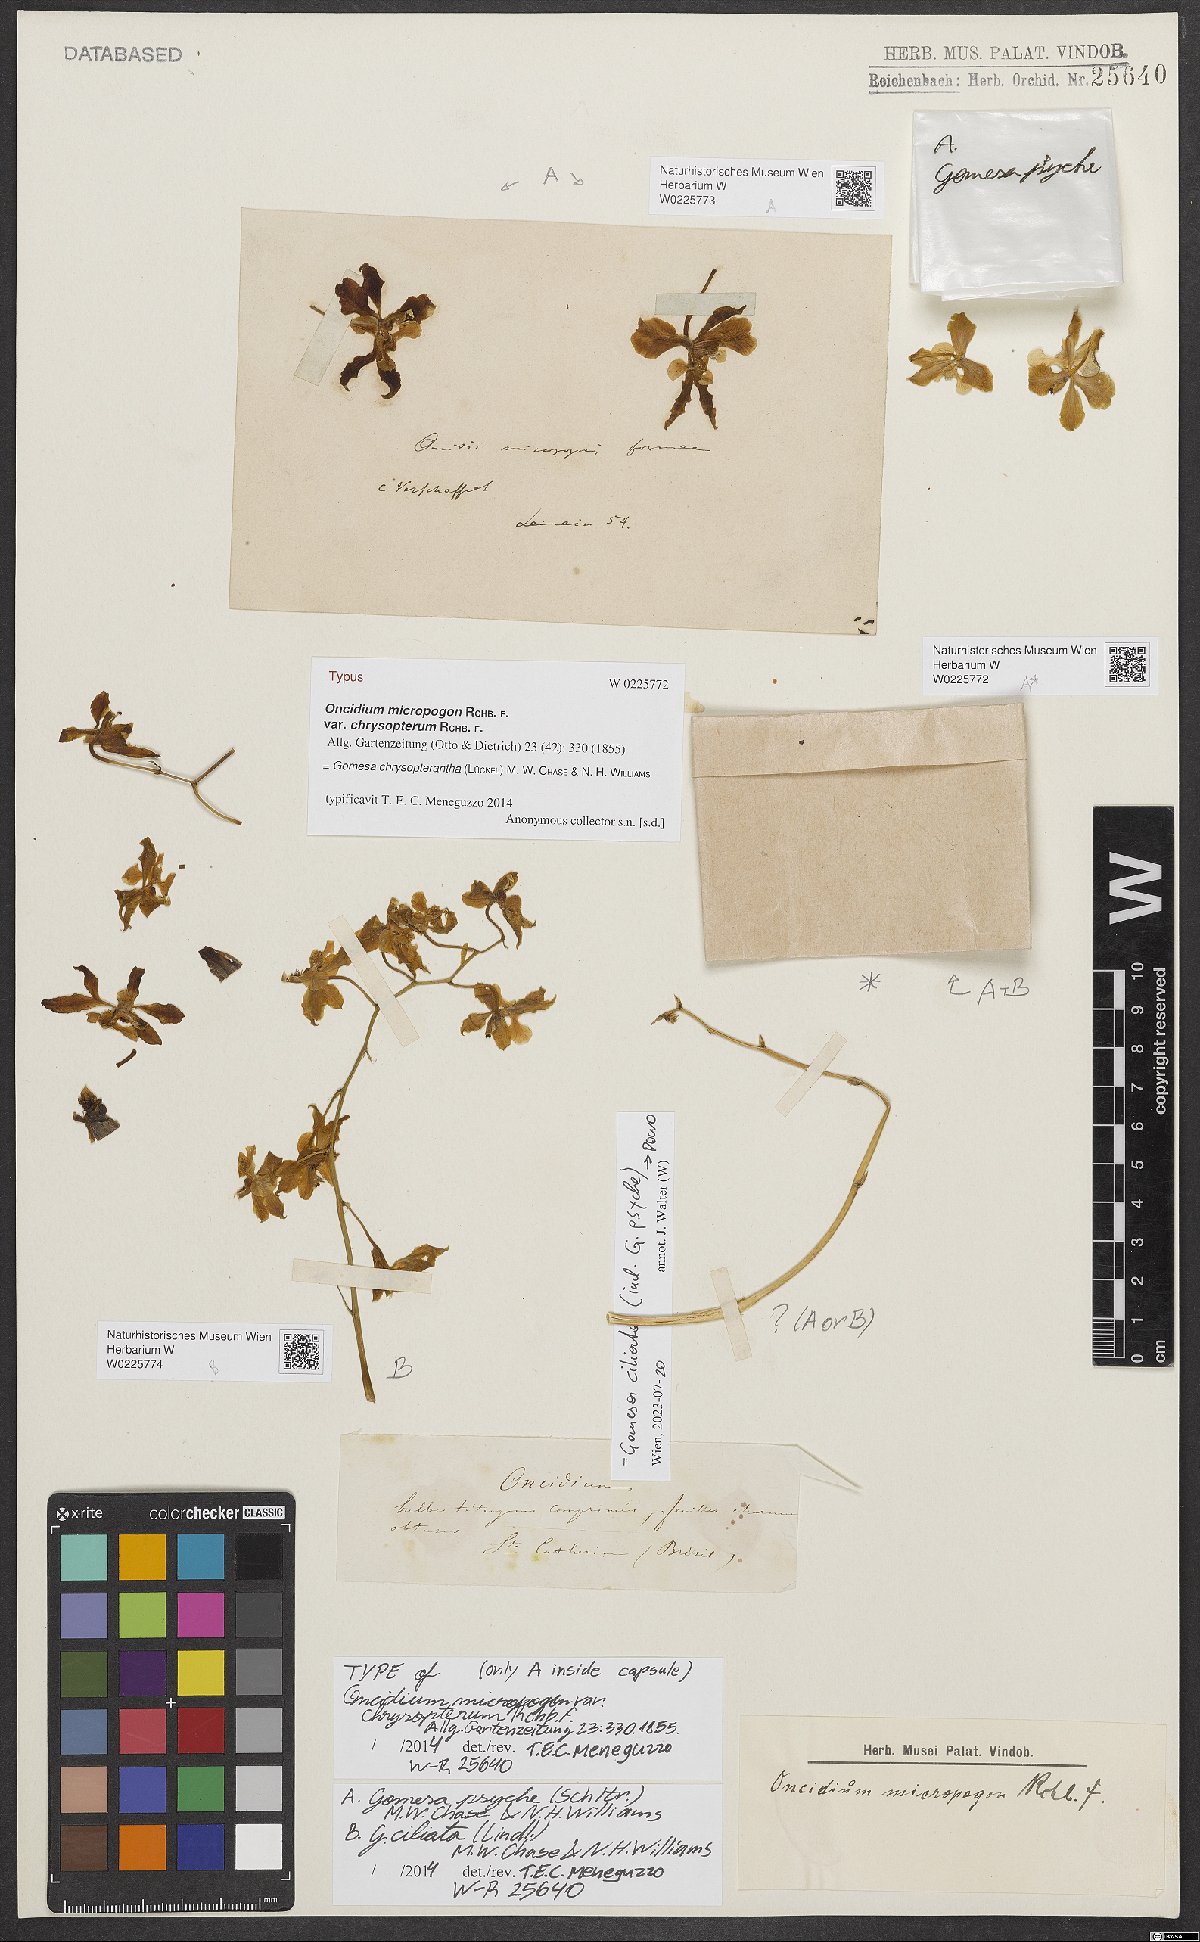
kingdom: Plantae
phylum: Tracheophyta
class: Liliopsida
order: Asparagales
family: Orchidaceae
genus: Gomesa
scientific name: Gomesa chrysopterantha
